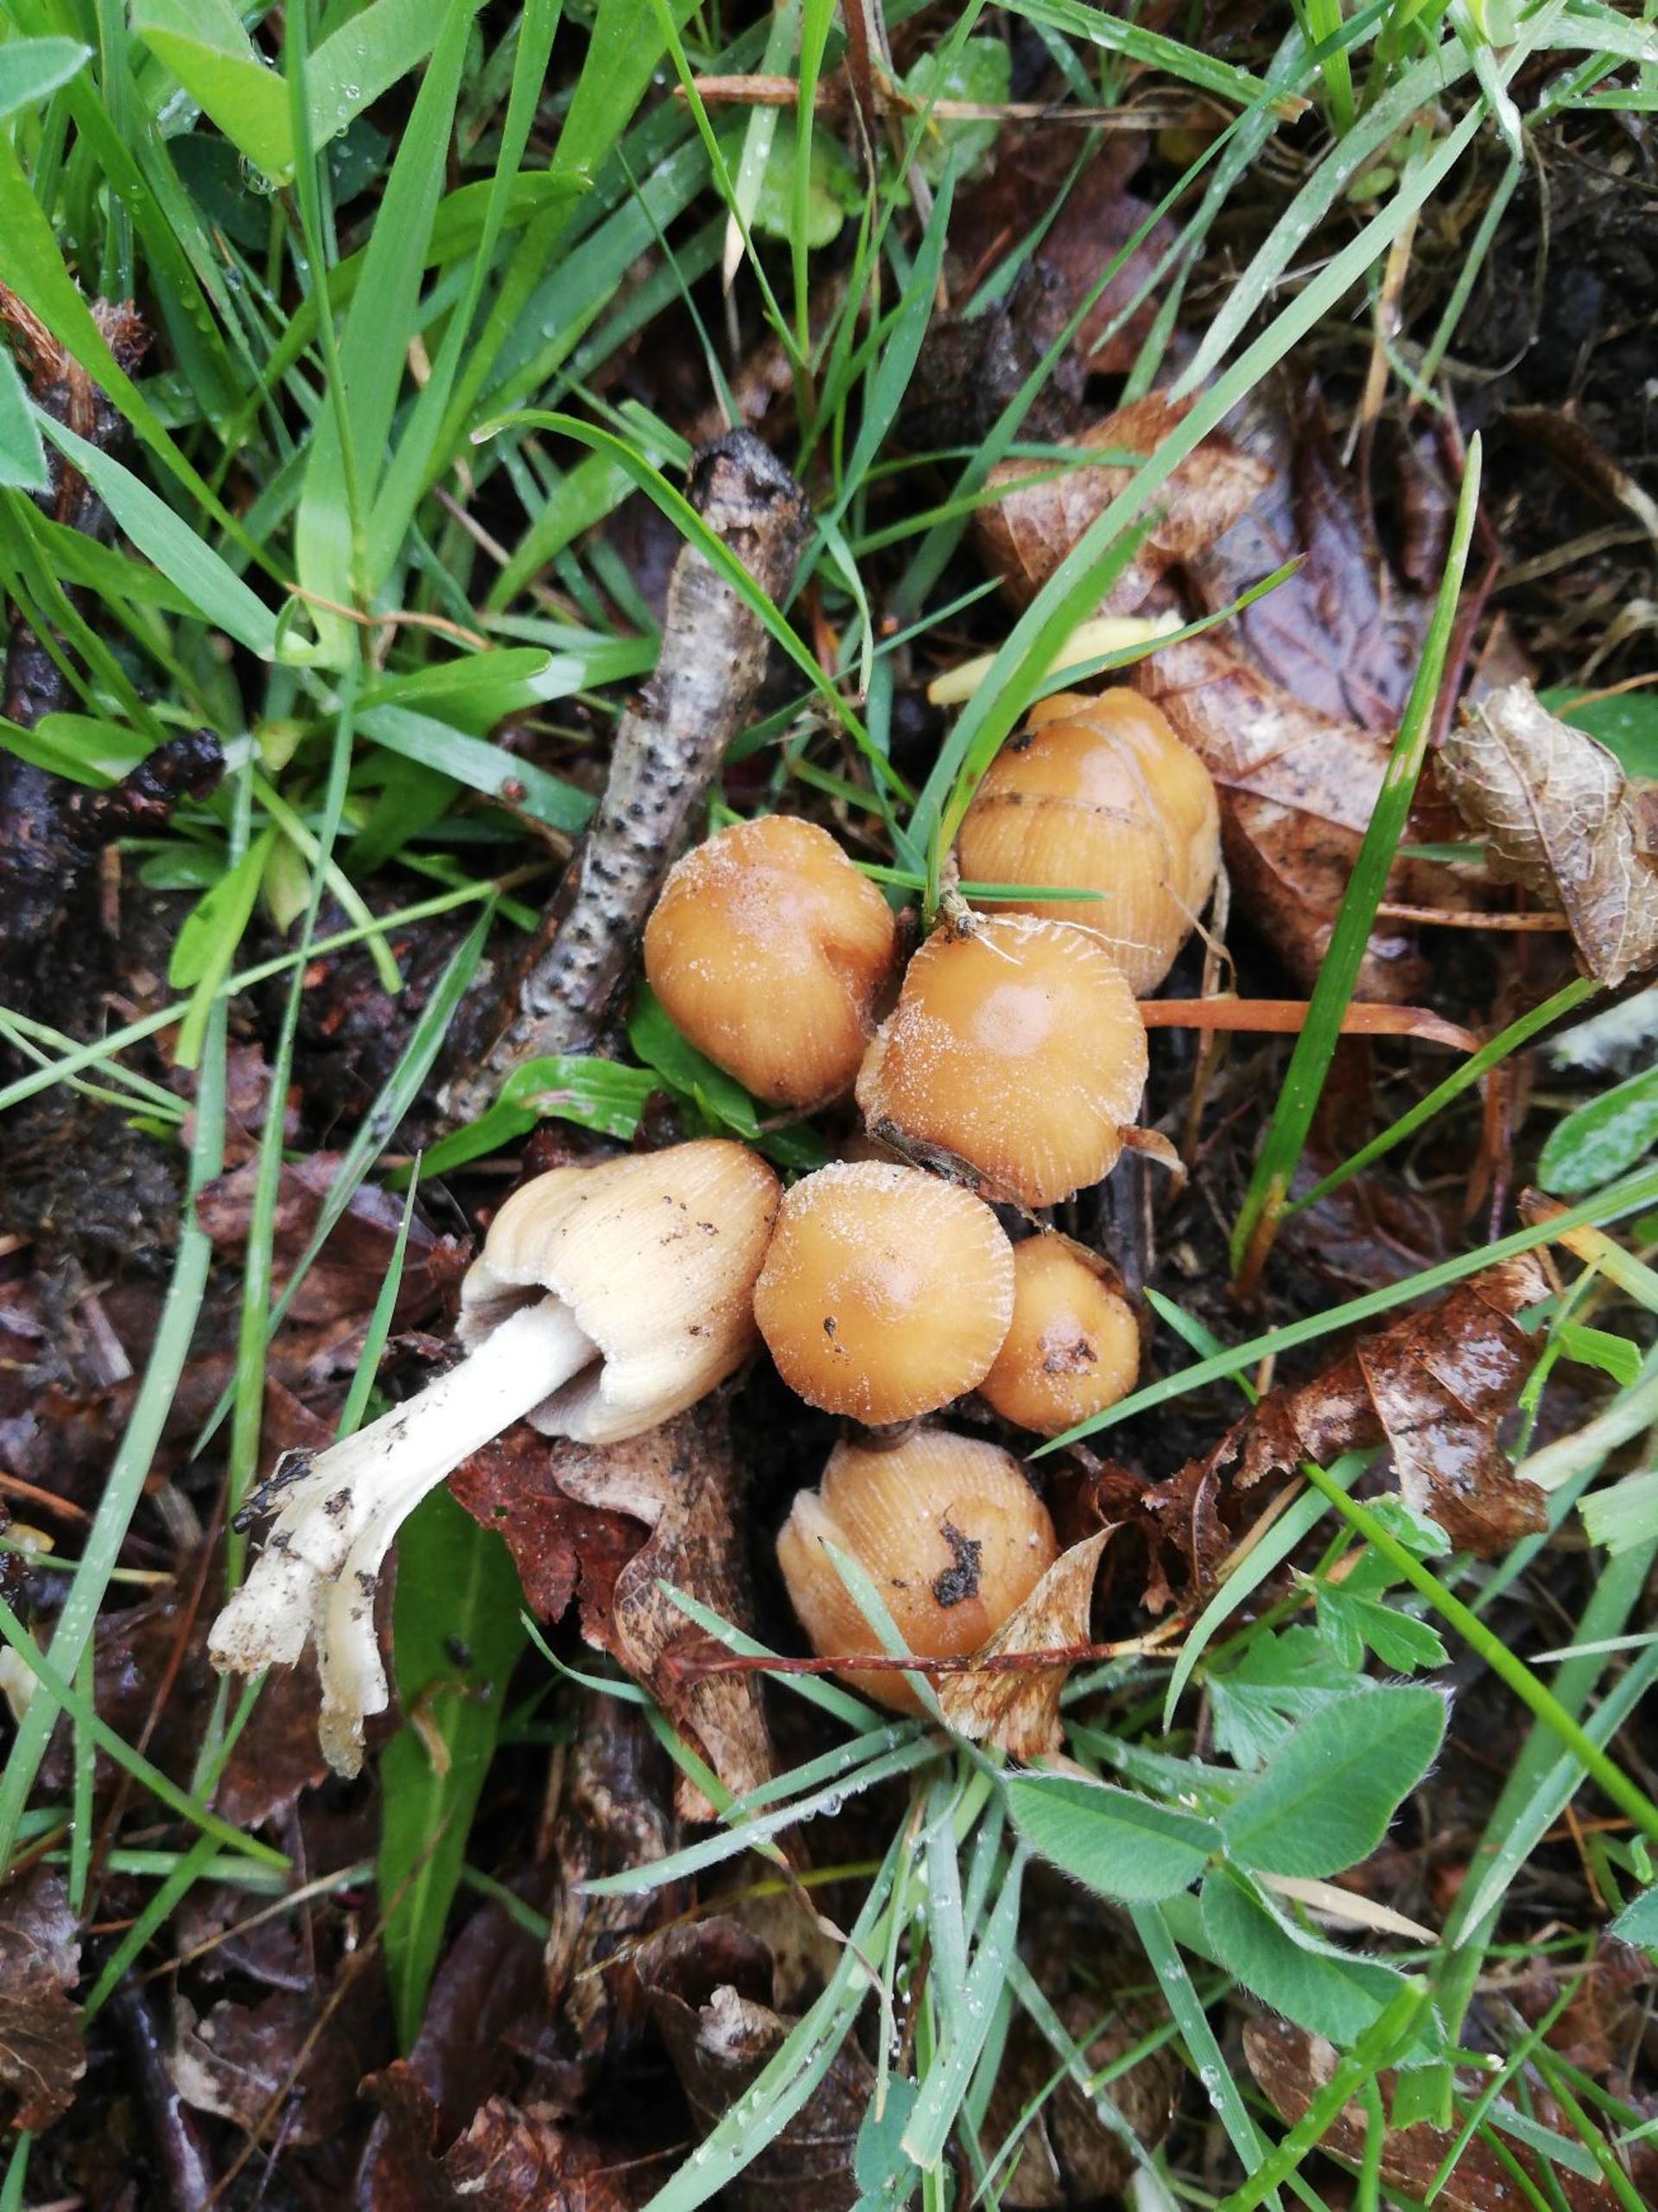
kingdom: Fungi
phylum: Basidiomycota
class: Agaricomycetes
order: Agaricales
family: Psathyrellaceae
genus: Coprinellus
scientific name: Coprinellus
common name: Blækhat
